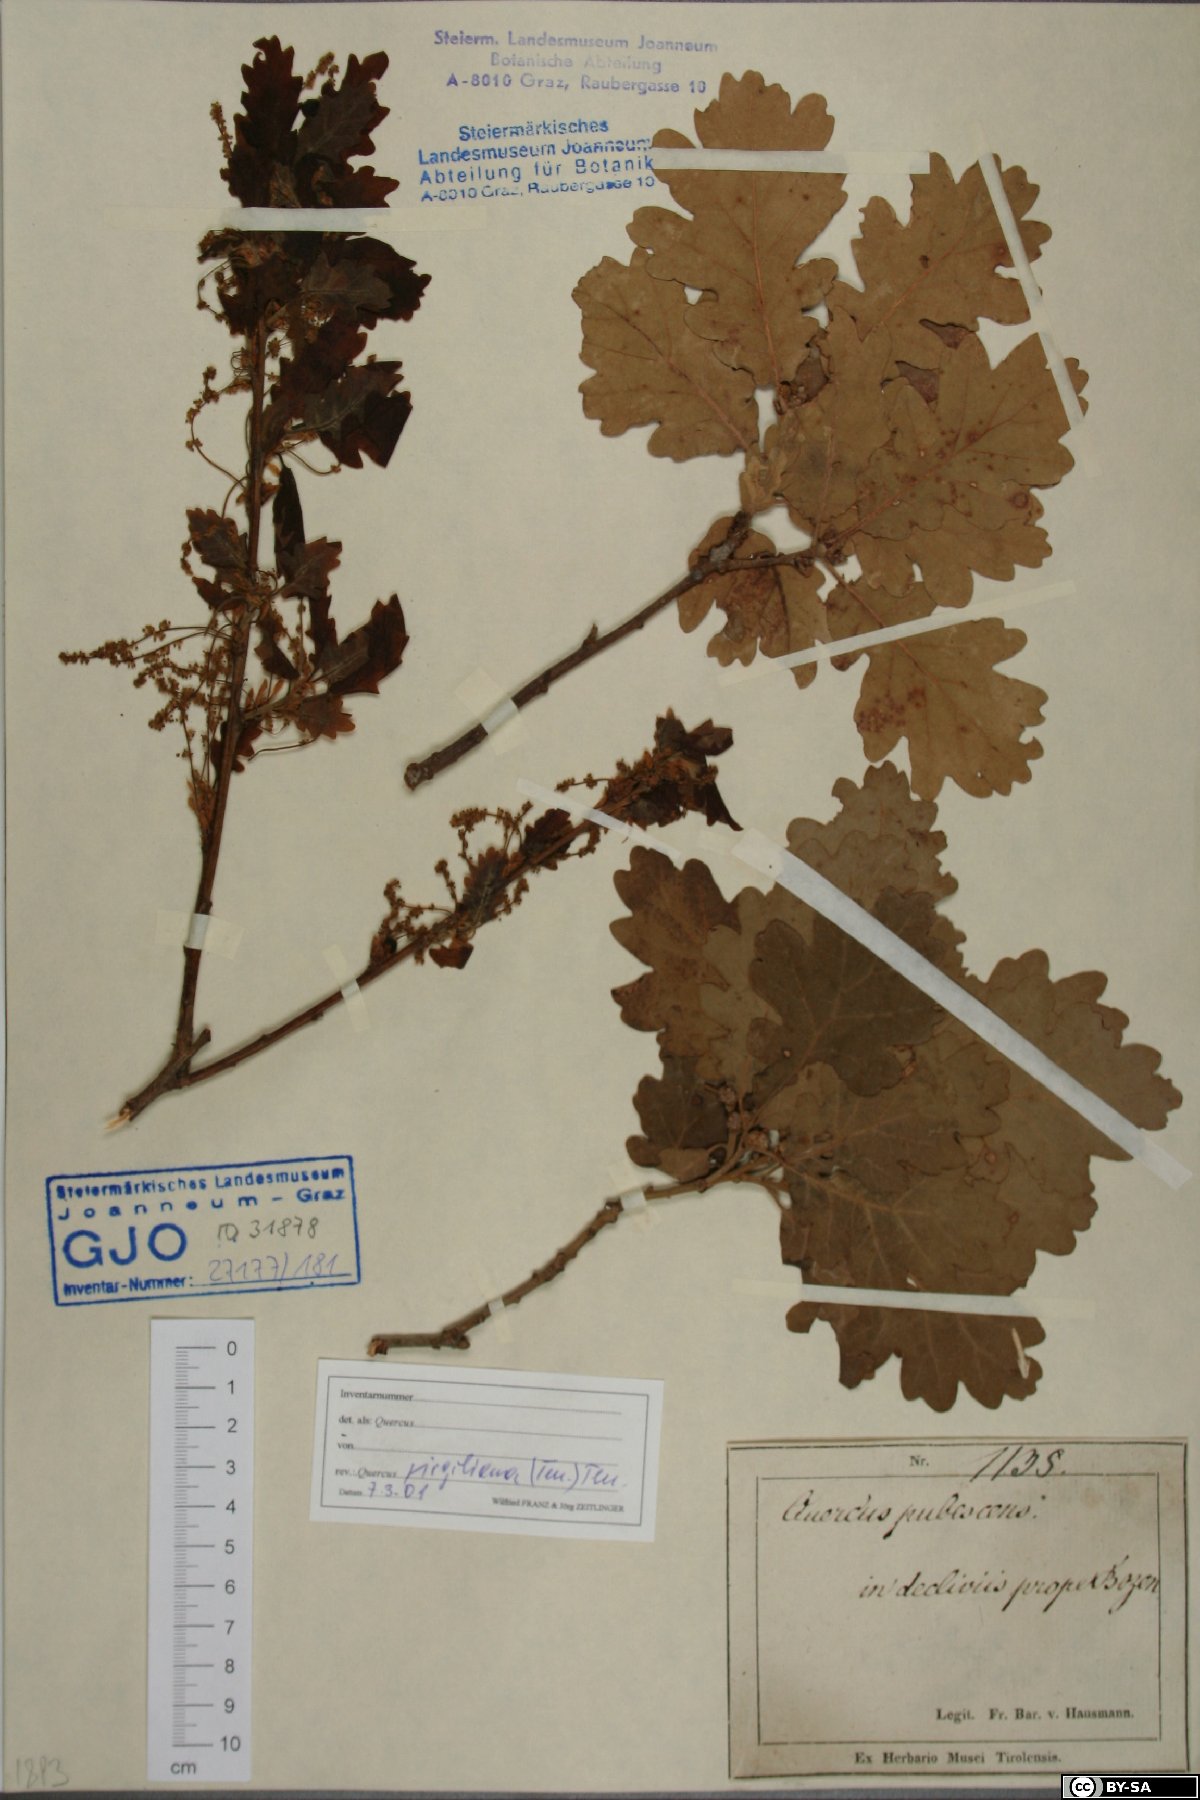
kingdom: Plantae
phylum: Tracheophyta
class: Magnoliopsida
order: Fagales
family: Fagaceae
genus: Quercus
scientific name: Quercus pubescens
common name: Downy oak
